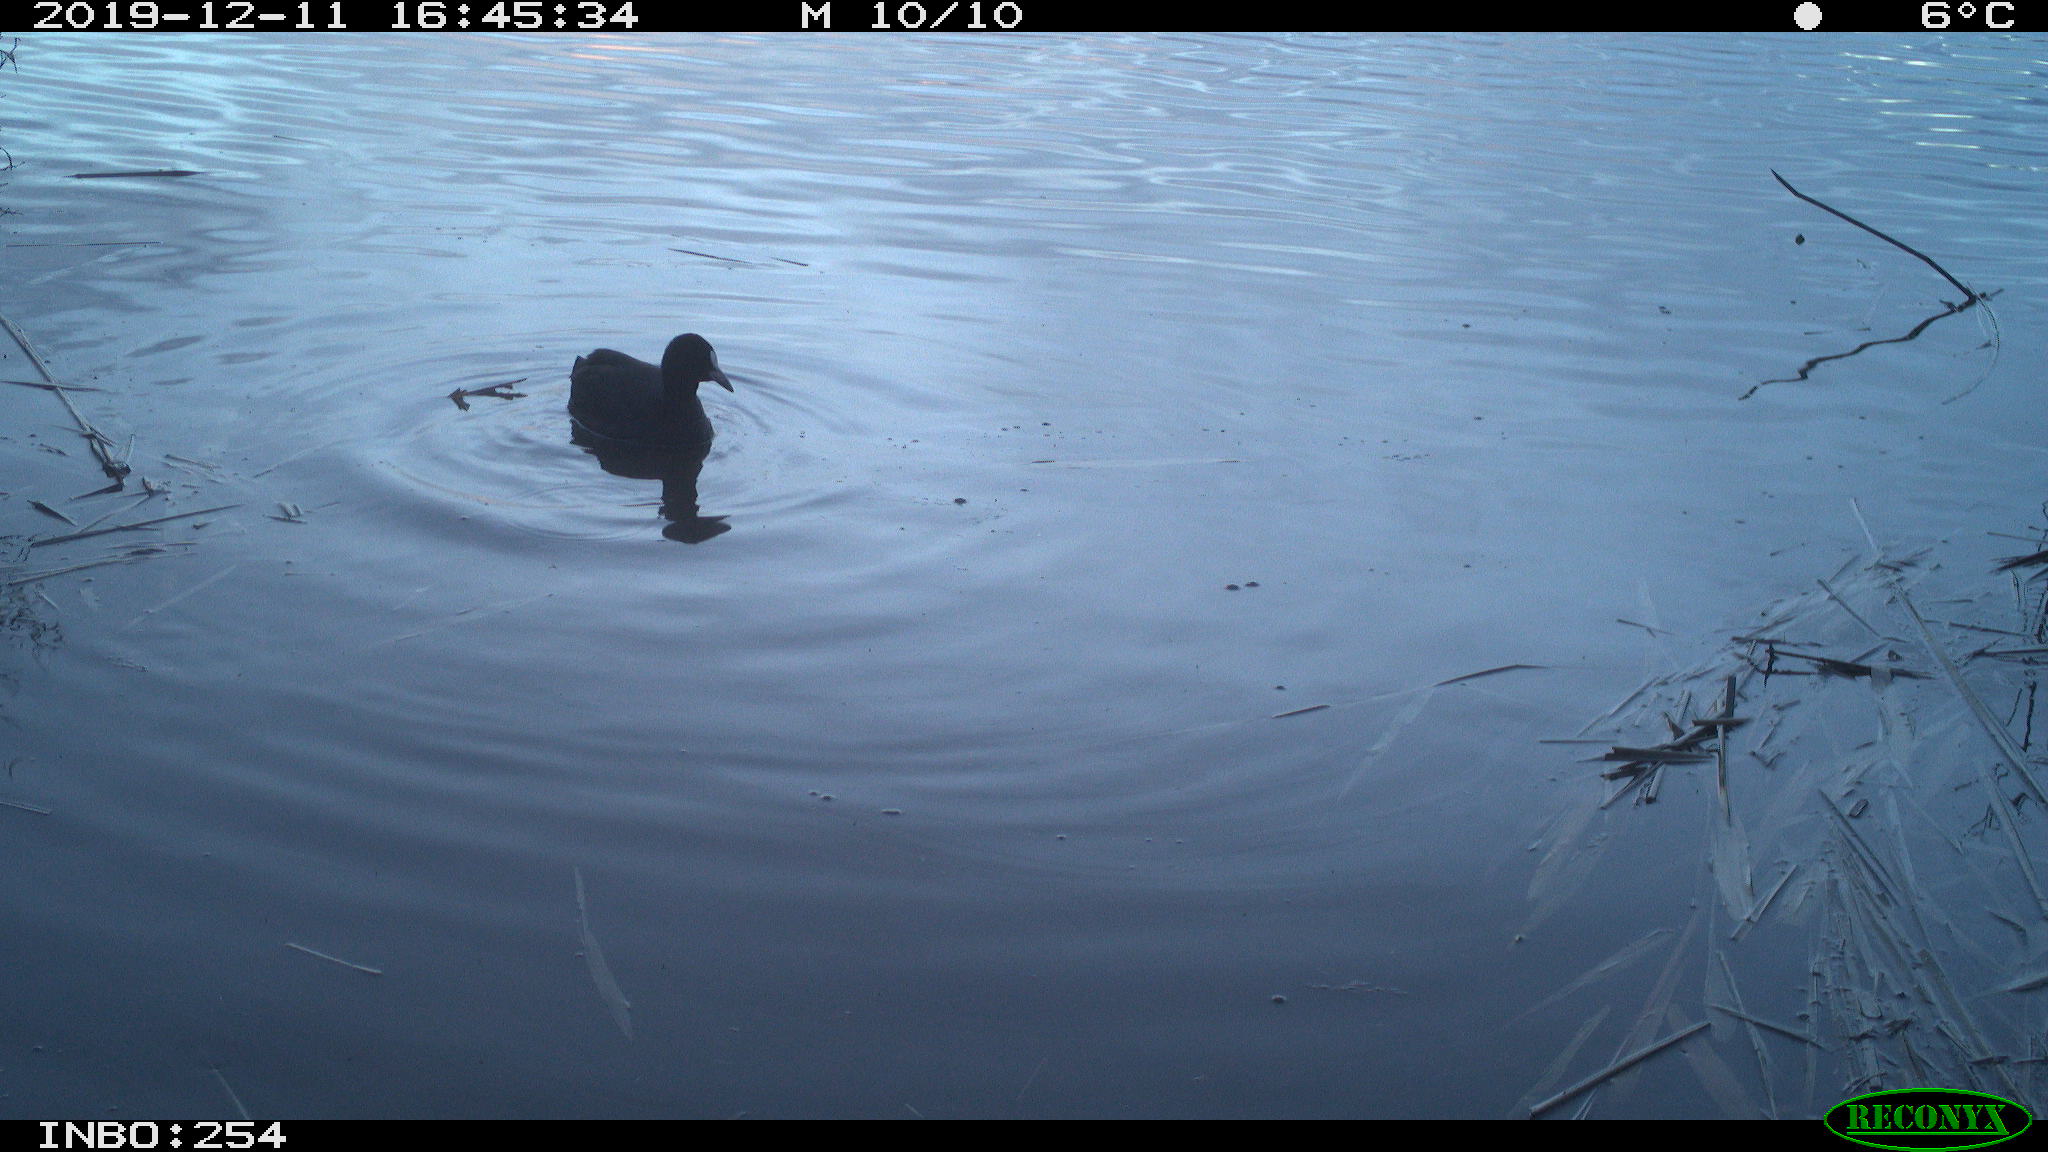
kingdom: Animalia
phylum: Chordata
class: Aves
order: Gruiformes
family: Rallidae
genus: Fulica
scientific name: Fulica atra
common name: Eurasian coot
